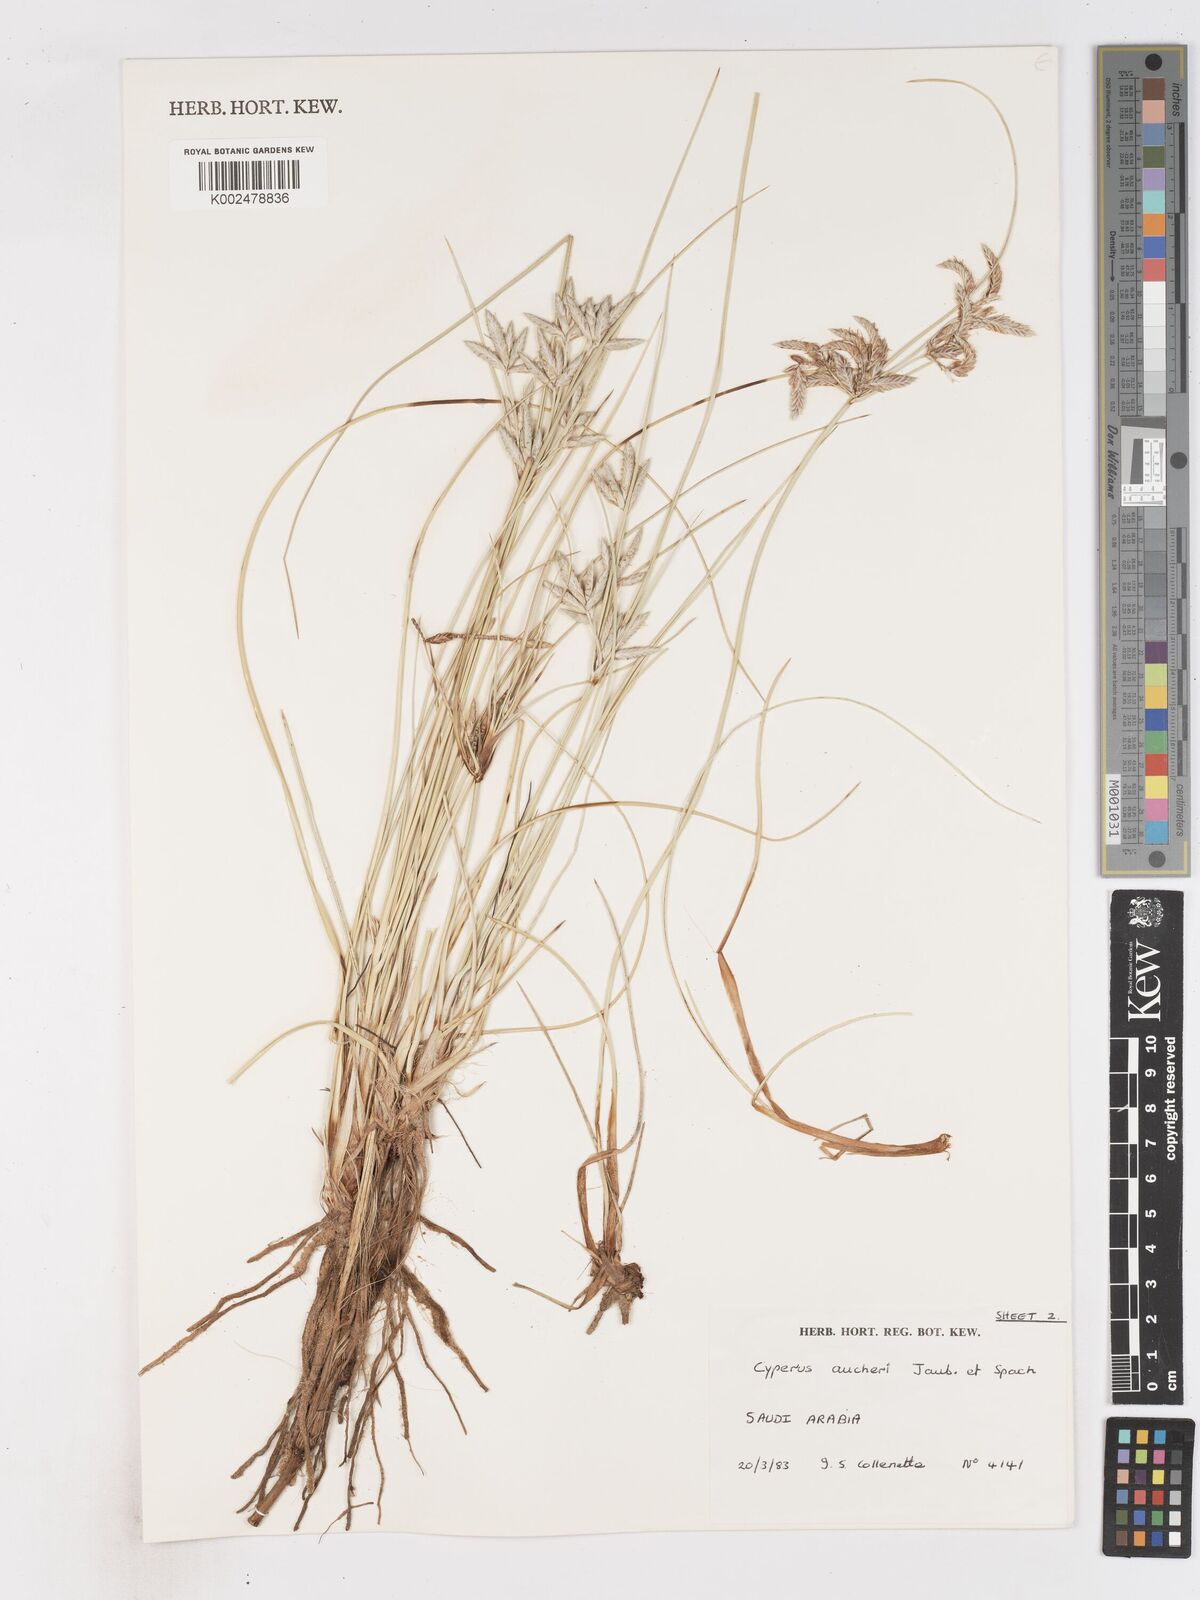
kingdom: Plantae
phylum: Tracheophyta
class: Liliopsida
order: Poales
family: Cyperaceae
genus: Cyperus
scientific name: Cyperus aucheri
